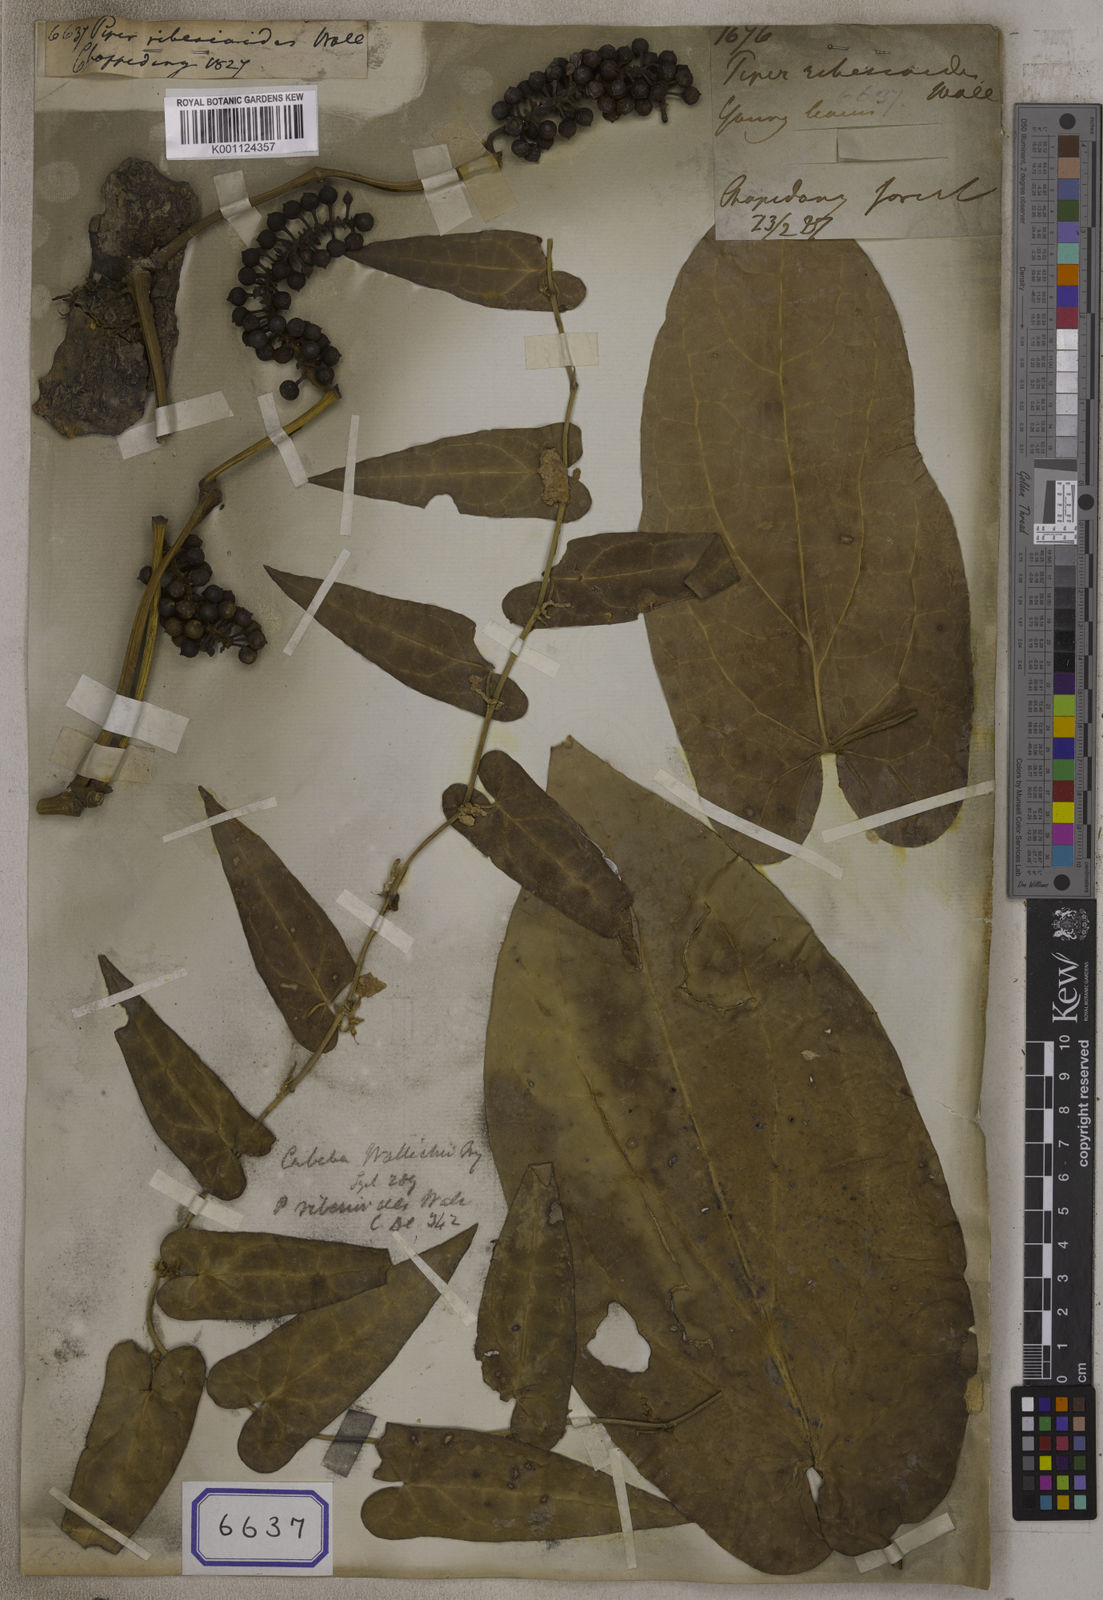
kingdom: Plantae
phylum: Tracheophyta
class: Magnoliopsida
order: Piperales
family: Piperaceae
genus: Piper
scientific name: Piper ribesioides
